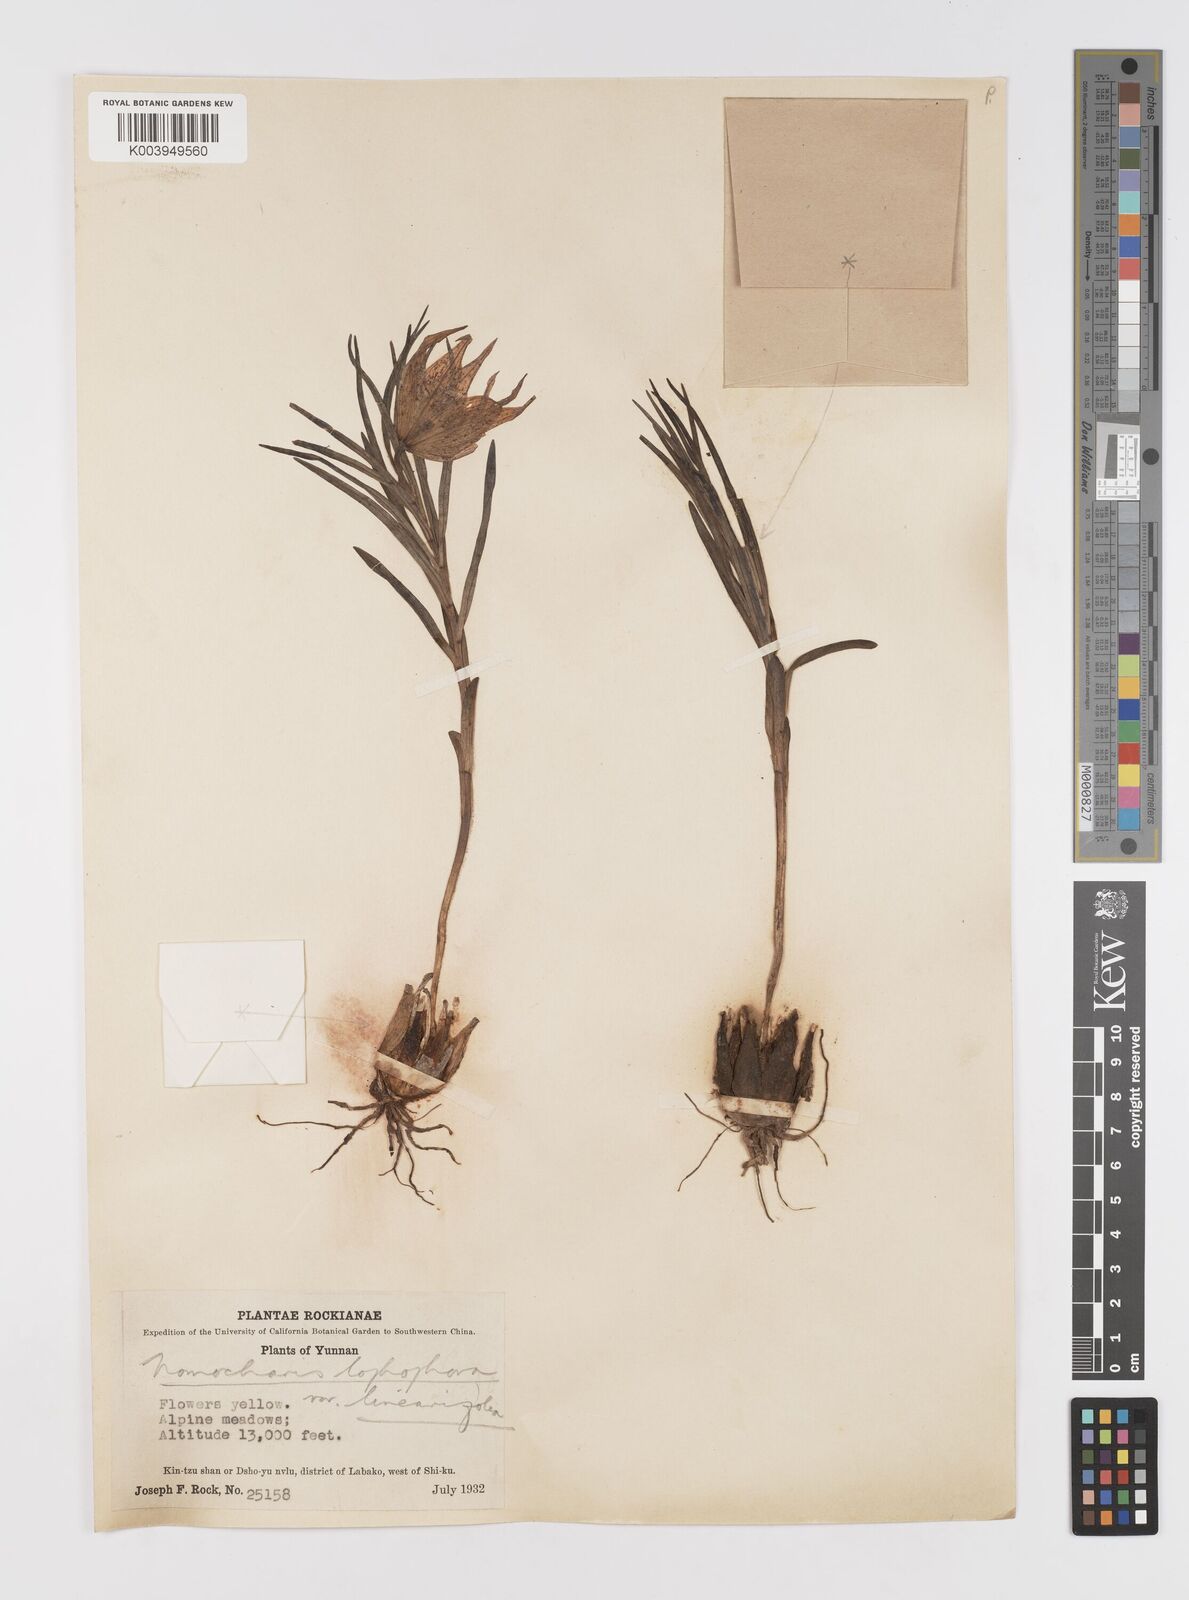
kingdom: Plantae
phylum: Tracheophyta
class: Liliopsida
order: Liliales
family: Liliaceae
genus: Lilium
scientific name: Lilium lophophorum
